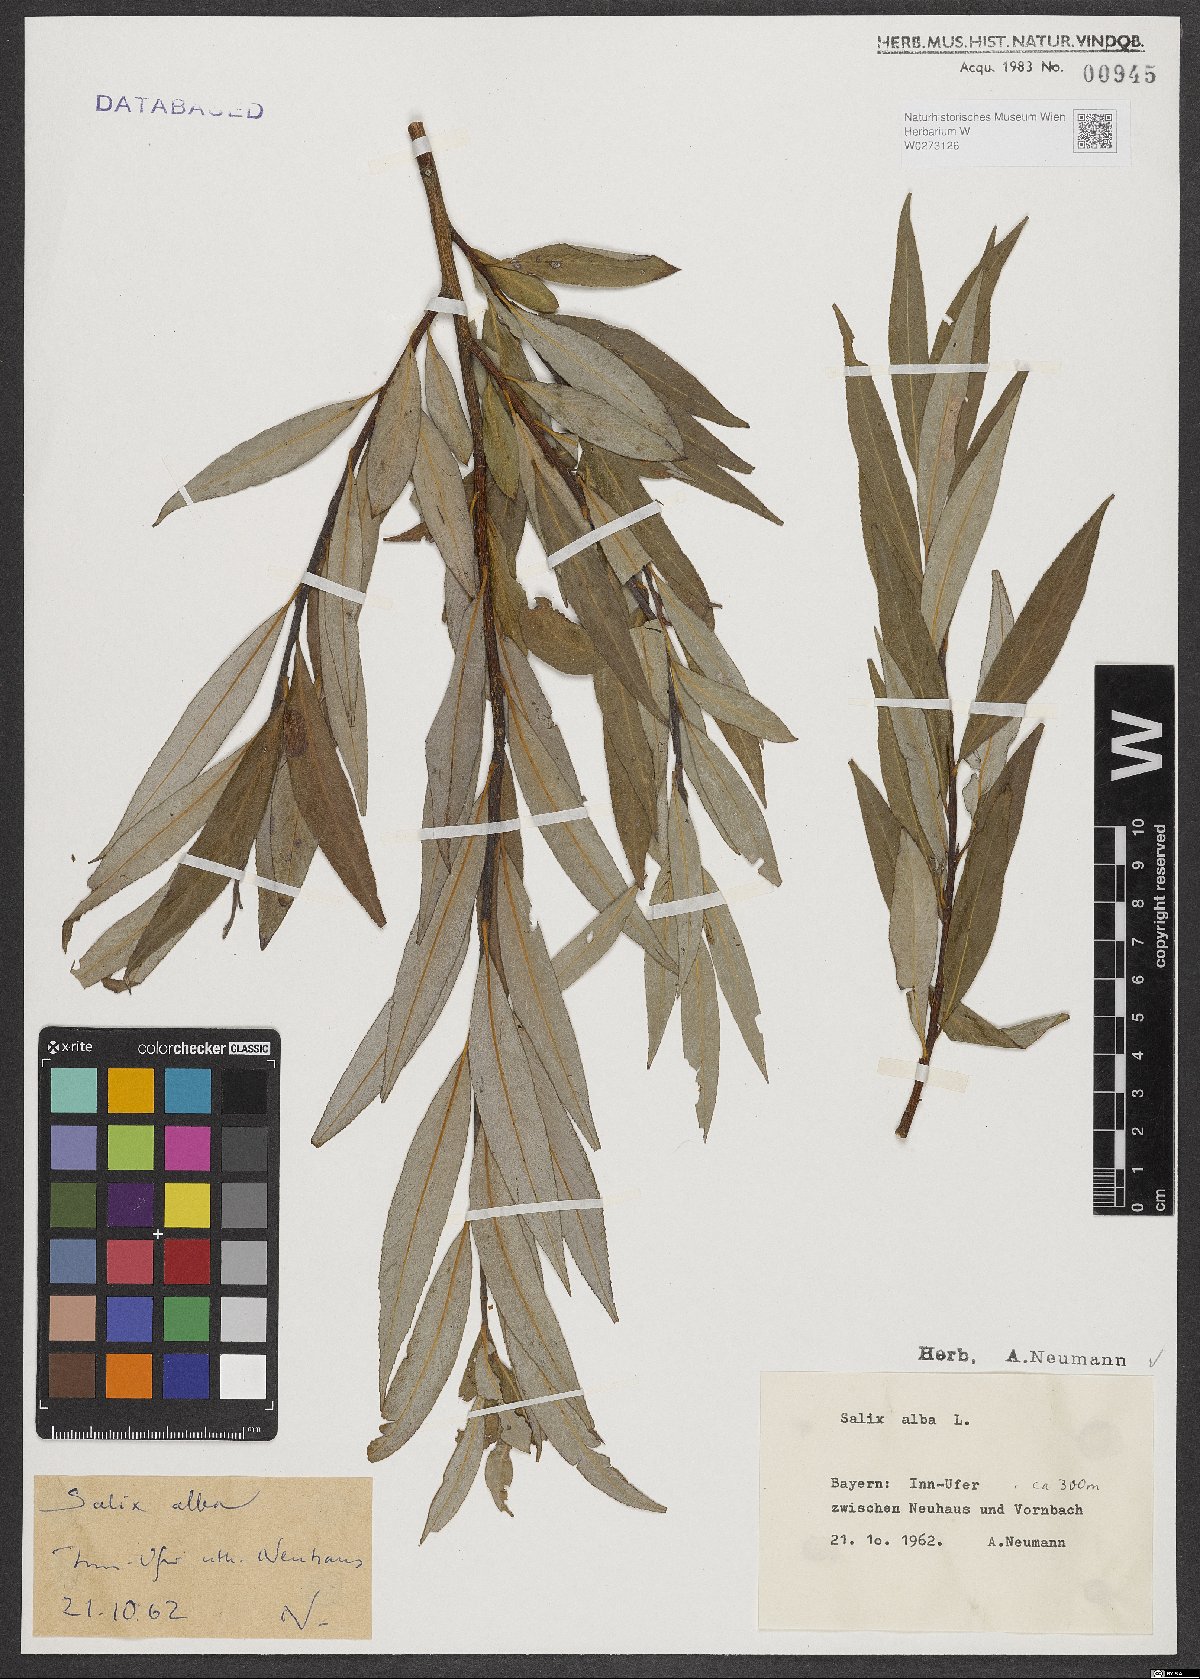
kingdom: Plantae
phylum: Tracheophyta
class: Magnoliopsida
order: Malpighiales
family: Salicaceae
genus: Salix
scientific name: Salix alba
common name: White willow
